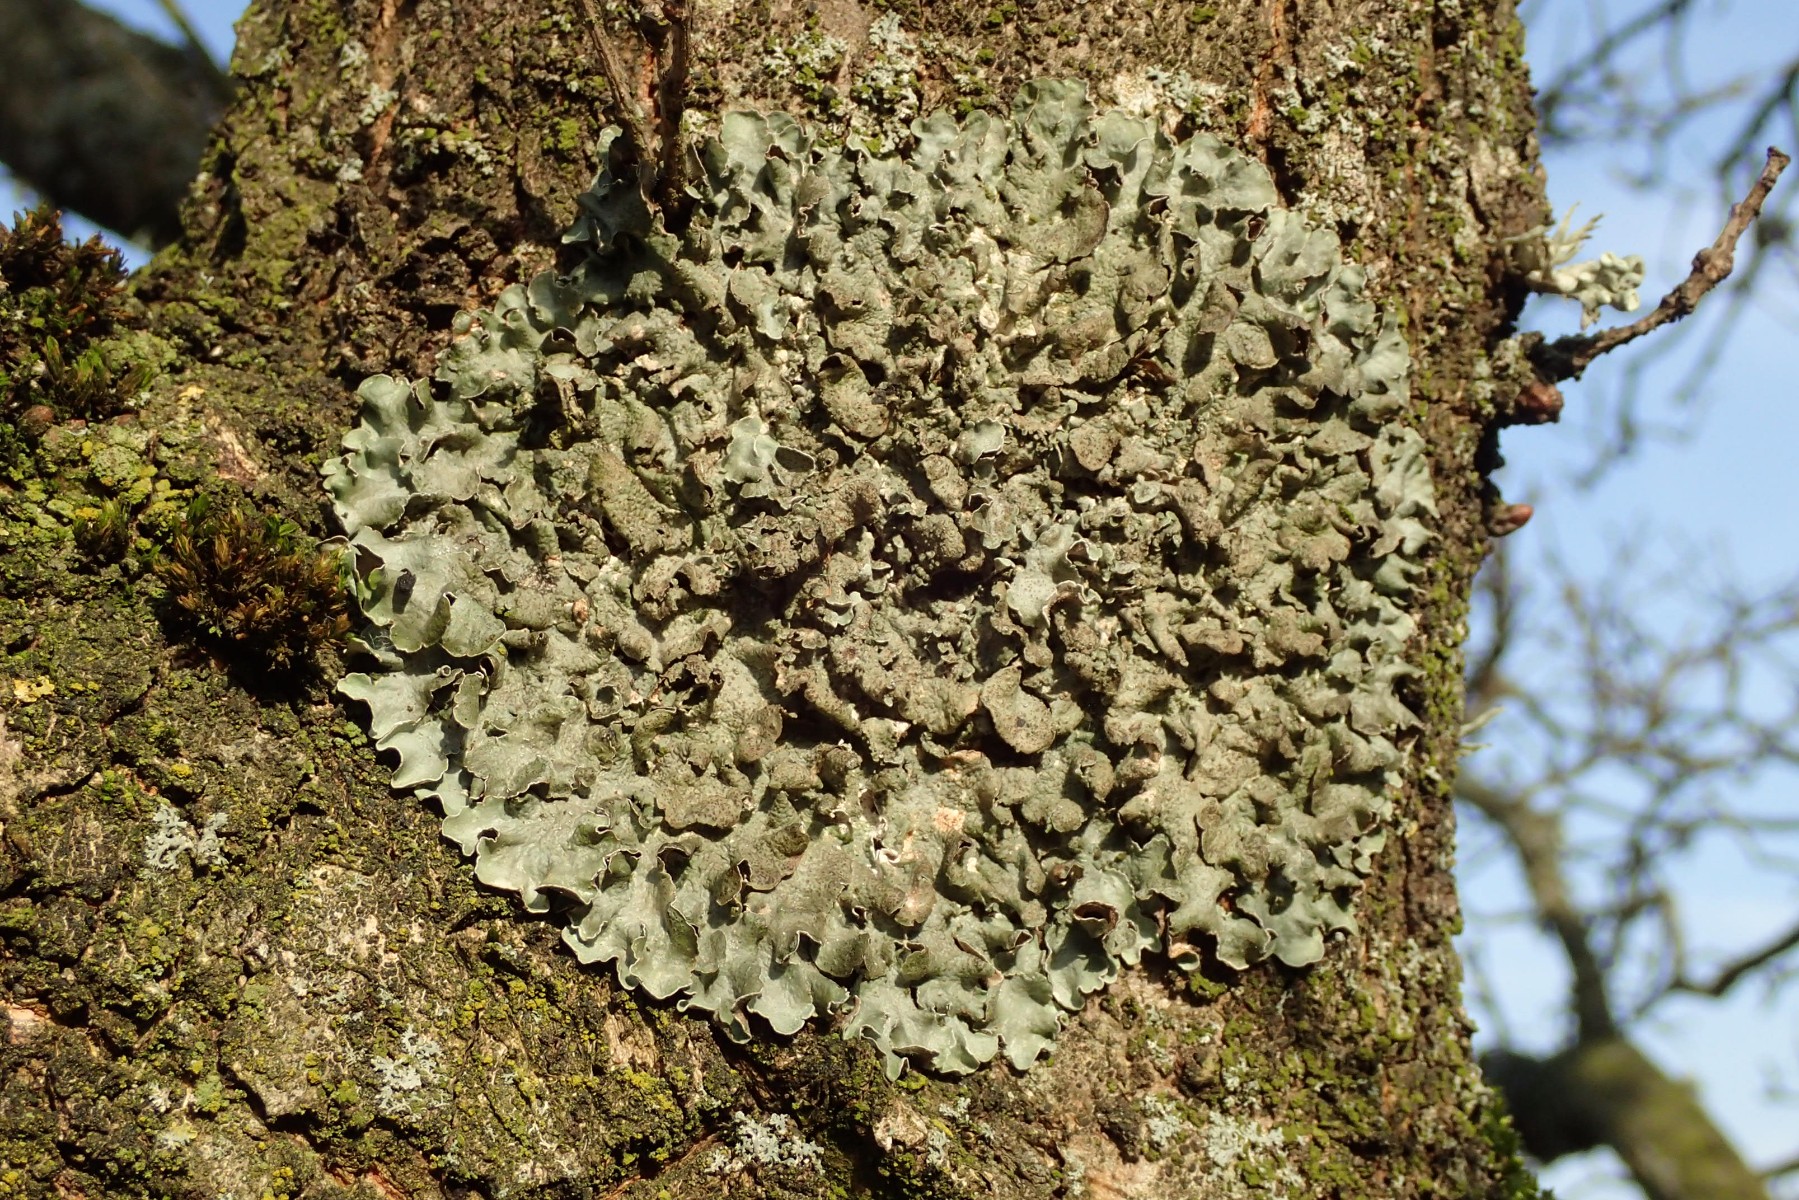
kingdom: Fungi
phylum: Ascomycota
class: Lecanoromycetes
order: Lecanorales
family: Parmeliaceae
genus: Pleurosticta
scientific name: Pleurosticta acetabulum
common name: stor skållav
